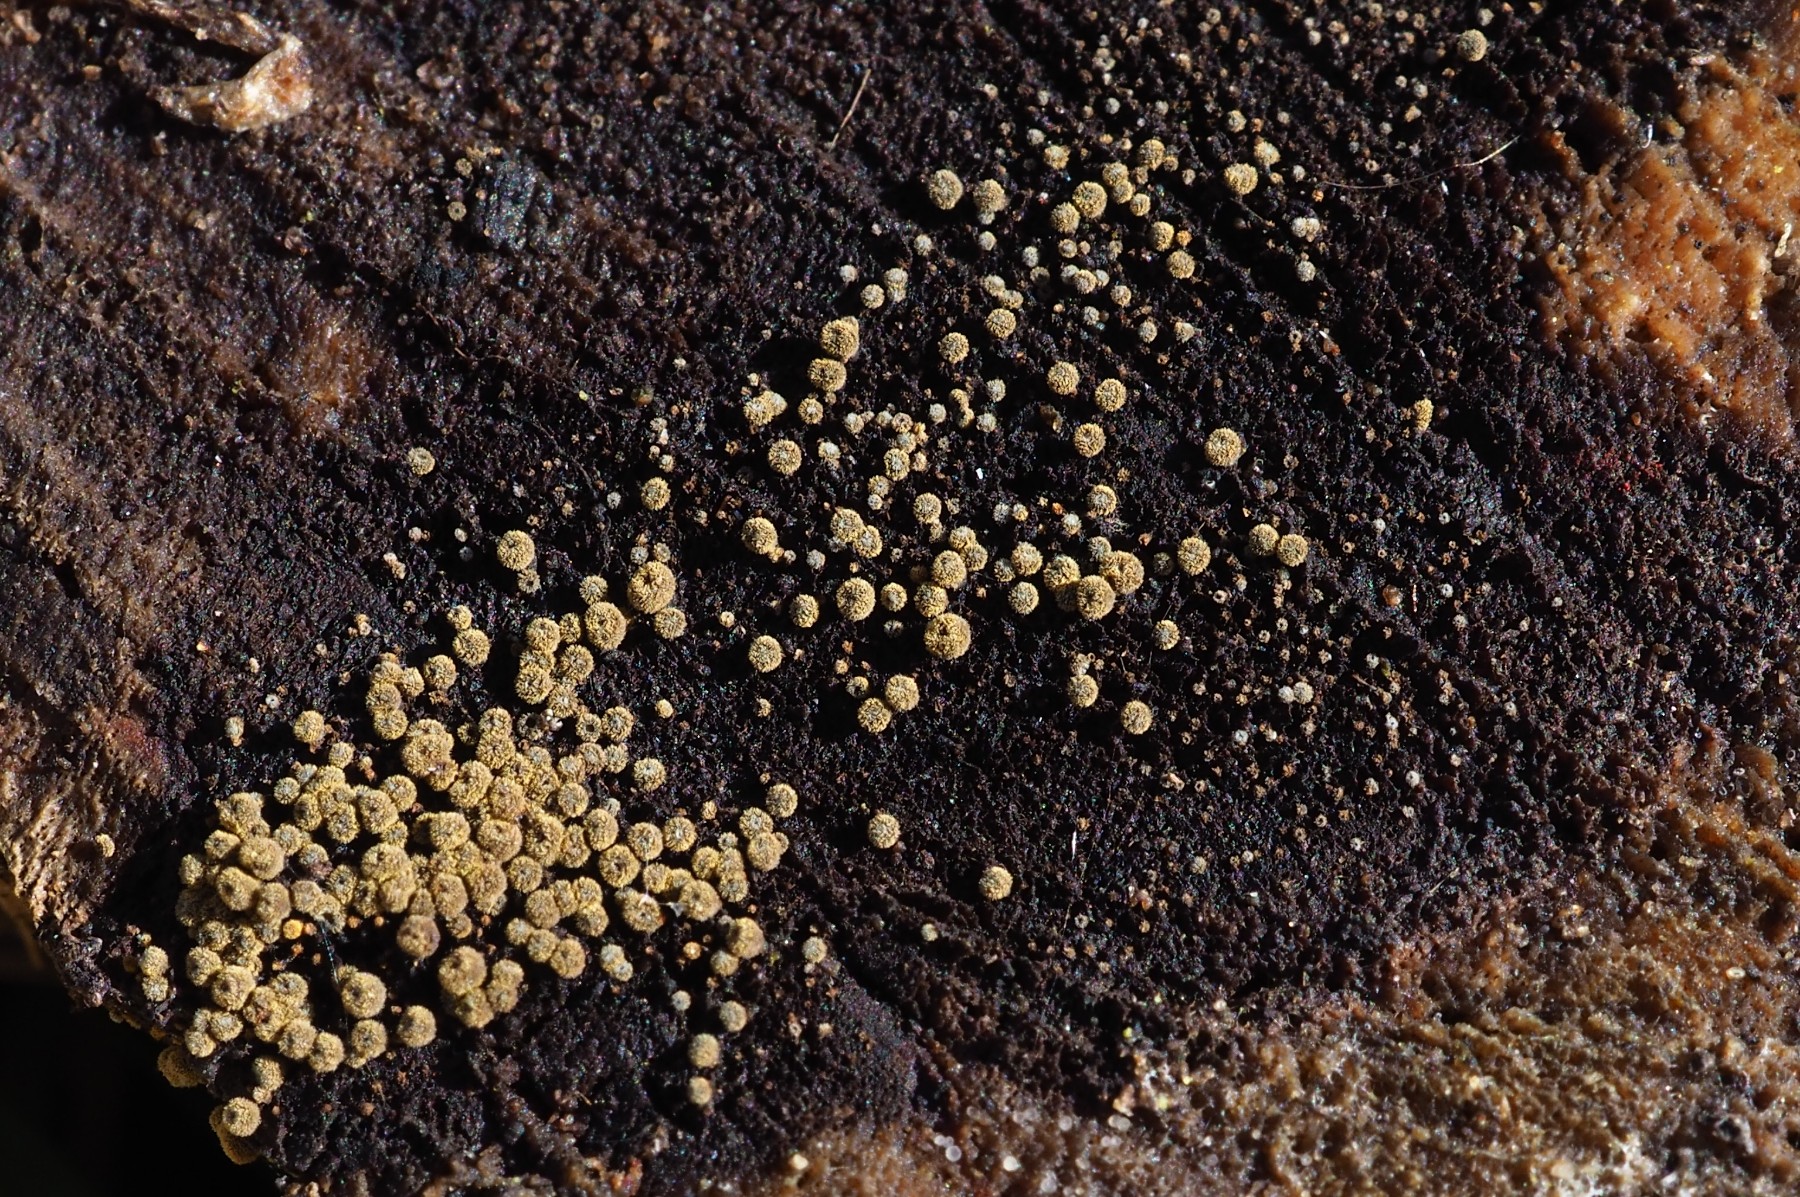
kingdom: Fungi
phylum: Ascomycota
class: Leotiomycetes
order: Helotiales
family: Lachnaceae
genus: Neodasyscypha
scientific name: Neodasyscypha cerina
